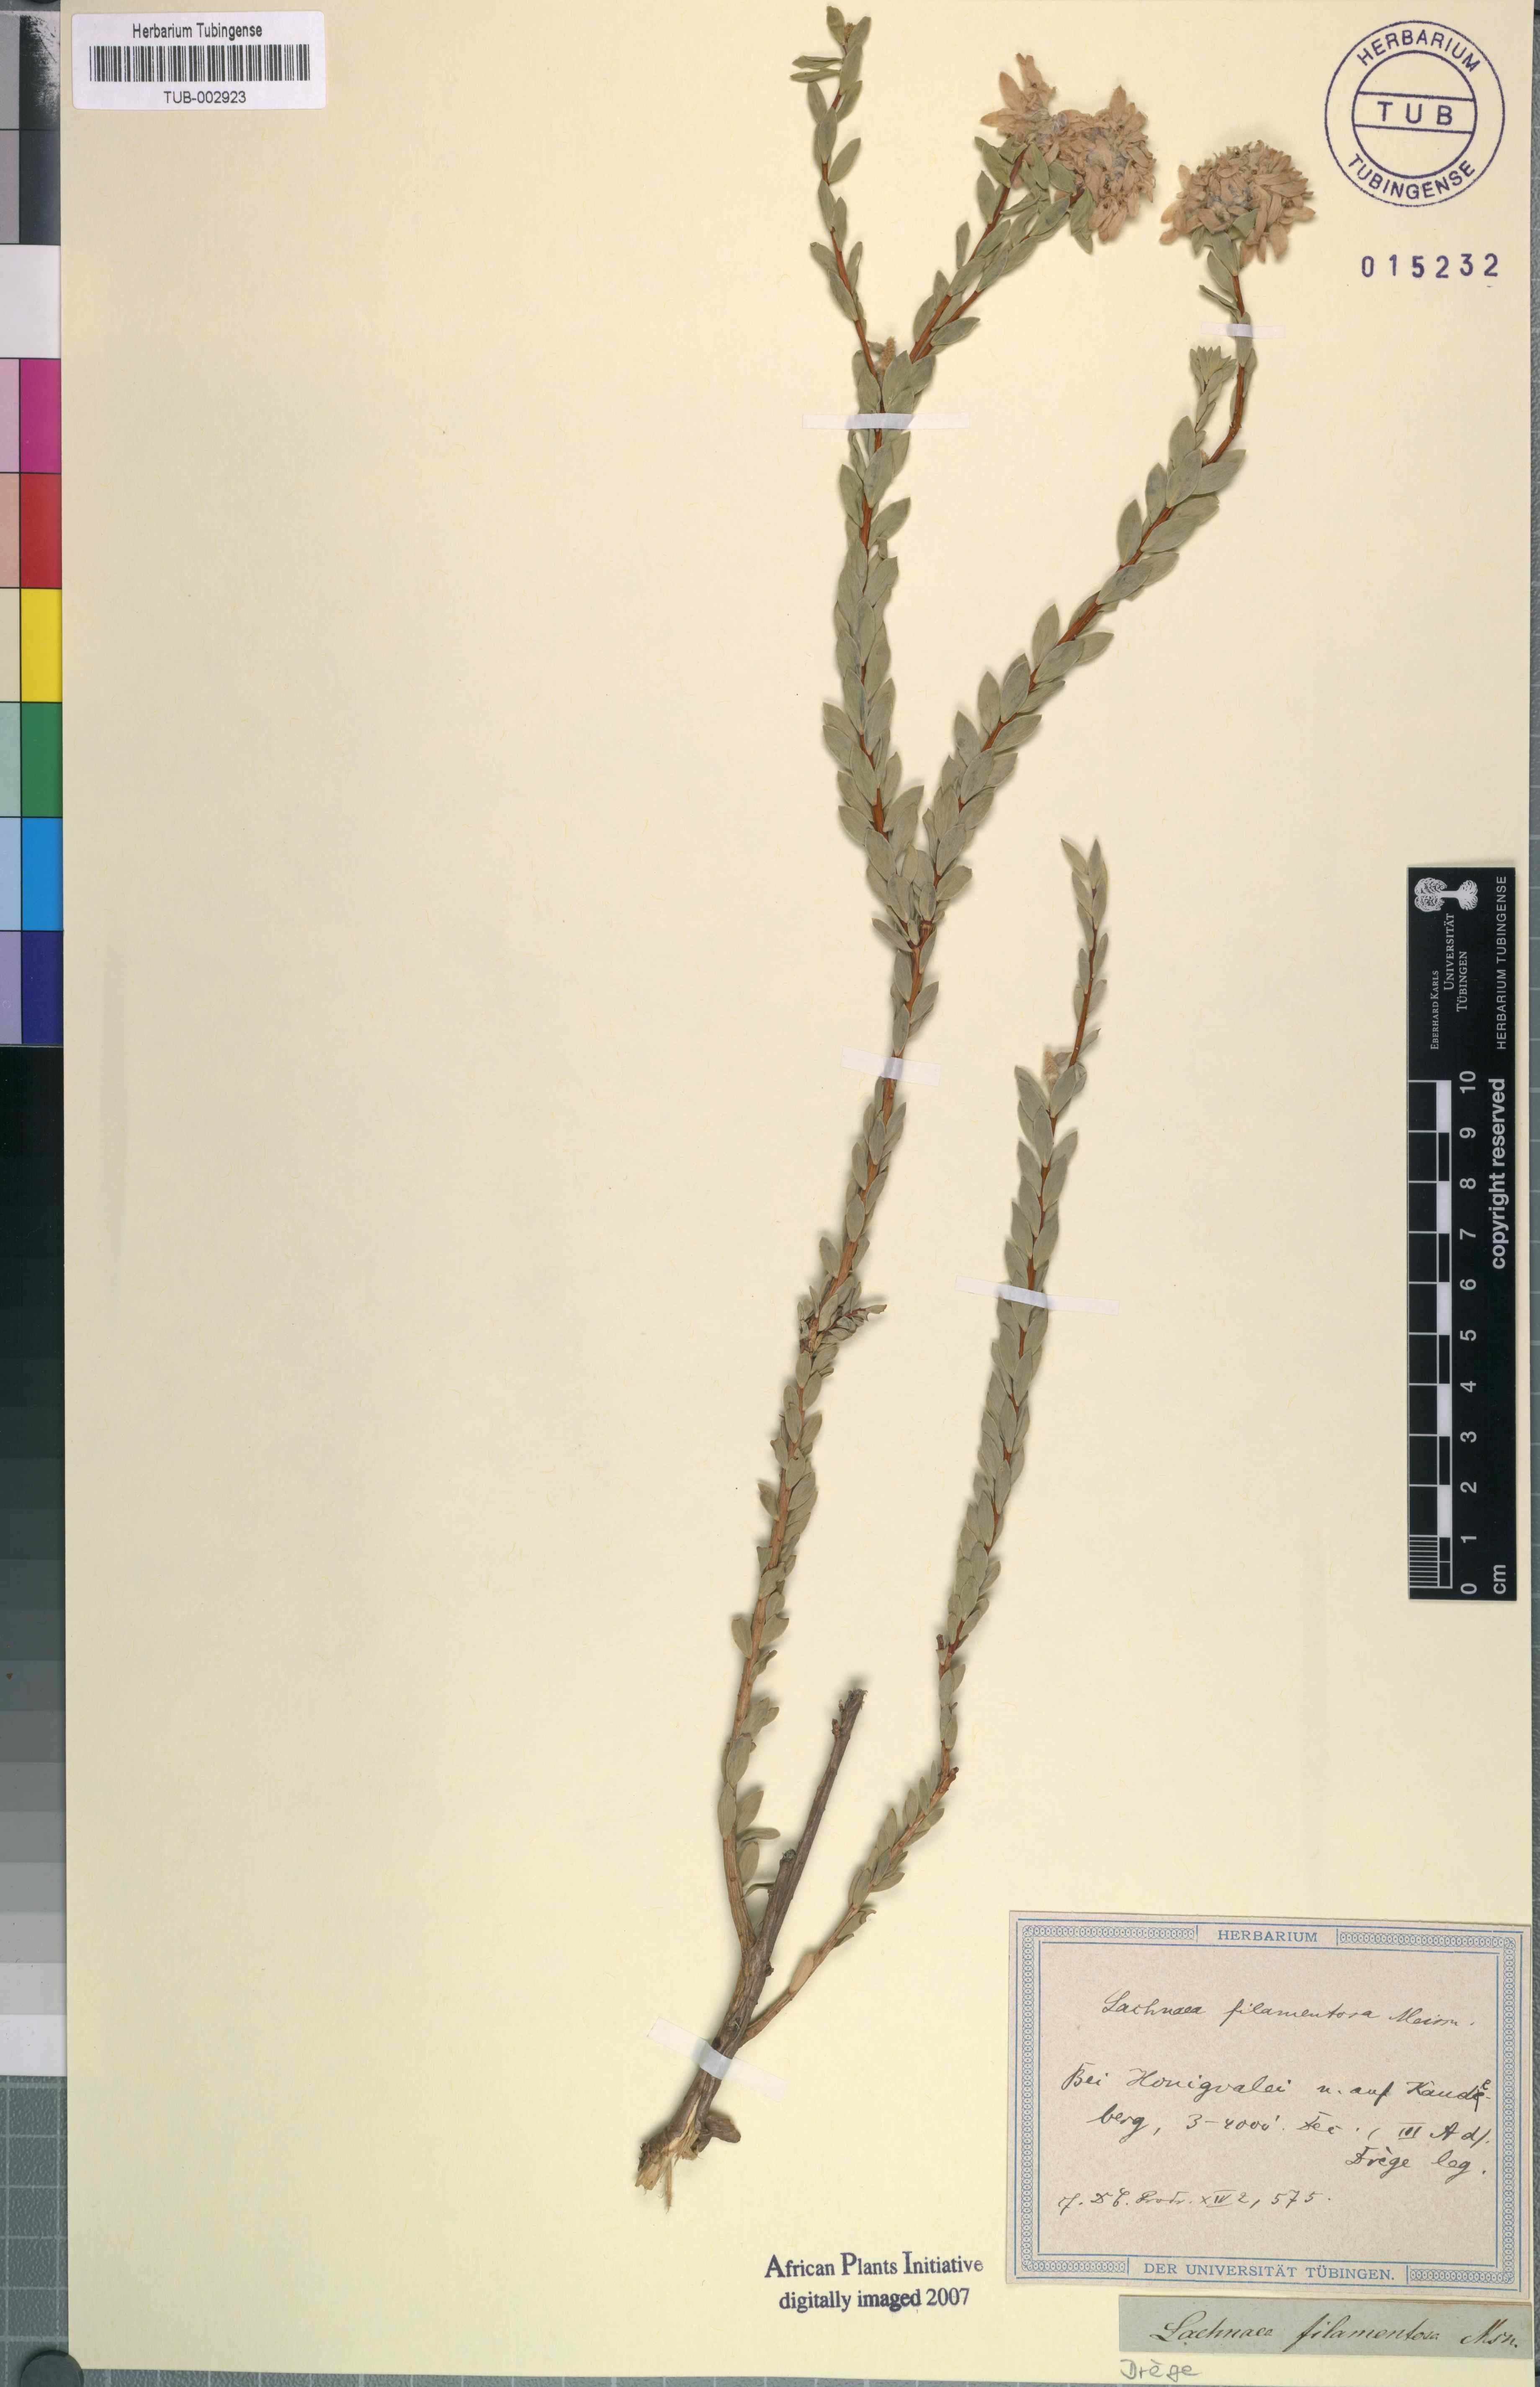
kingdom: Plantae
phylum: Tracheophyta
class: Magnoliopsida
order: Malvales
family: Thymelaeaceae
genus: Lachnaea
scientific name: Lachnaea filamentosa
